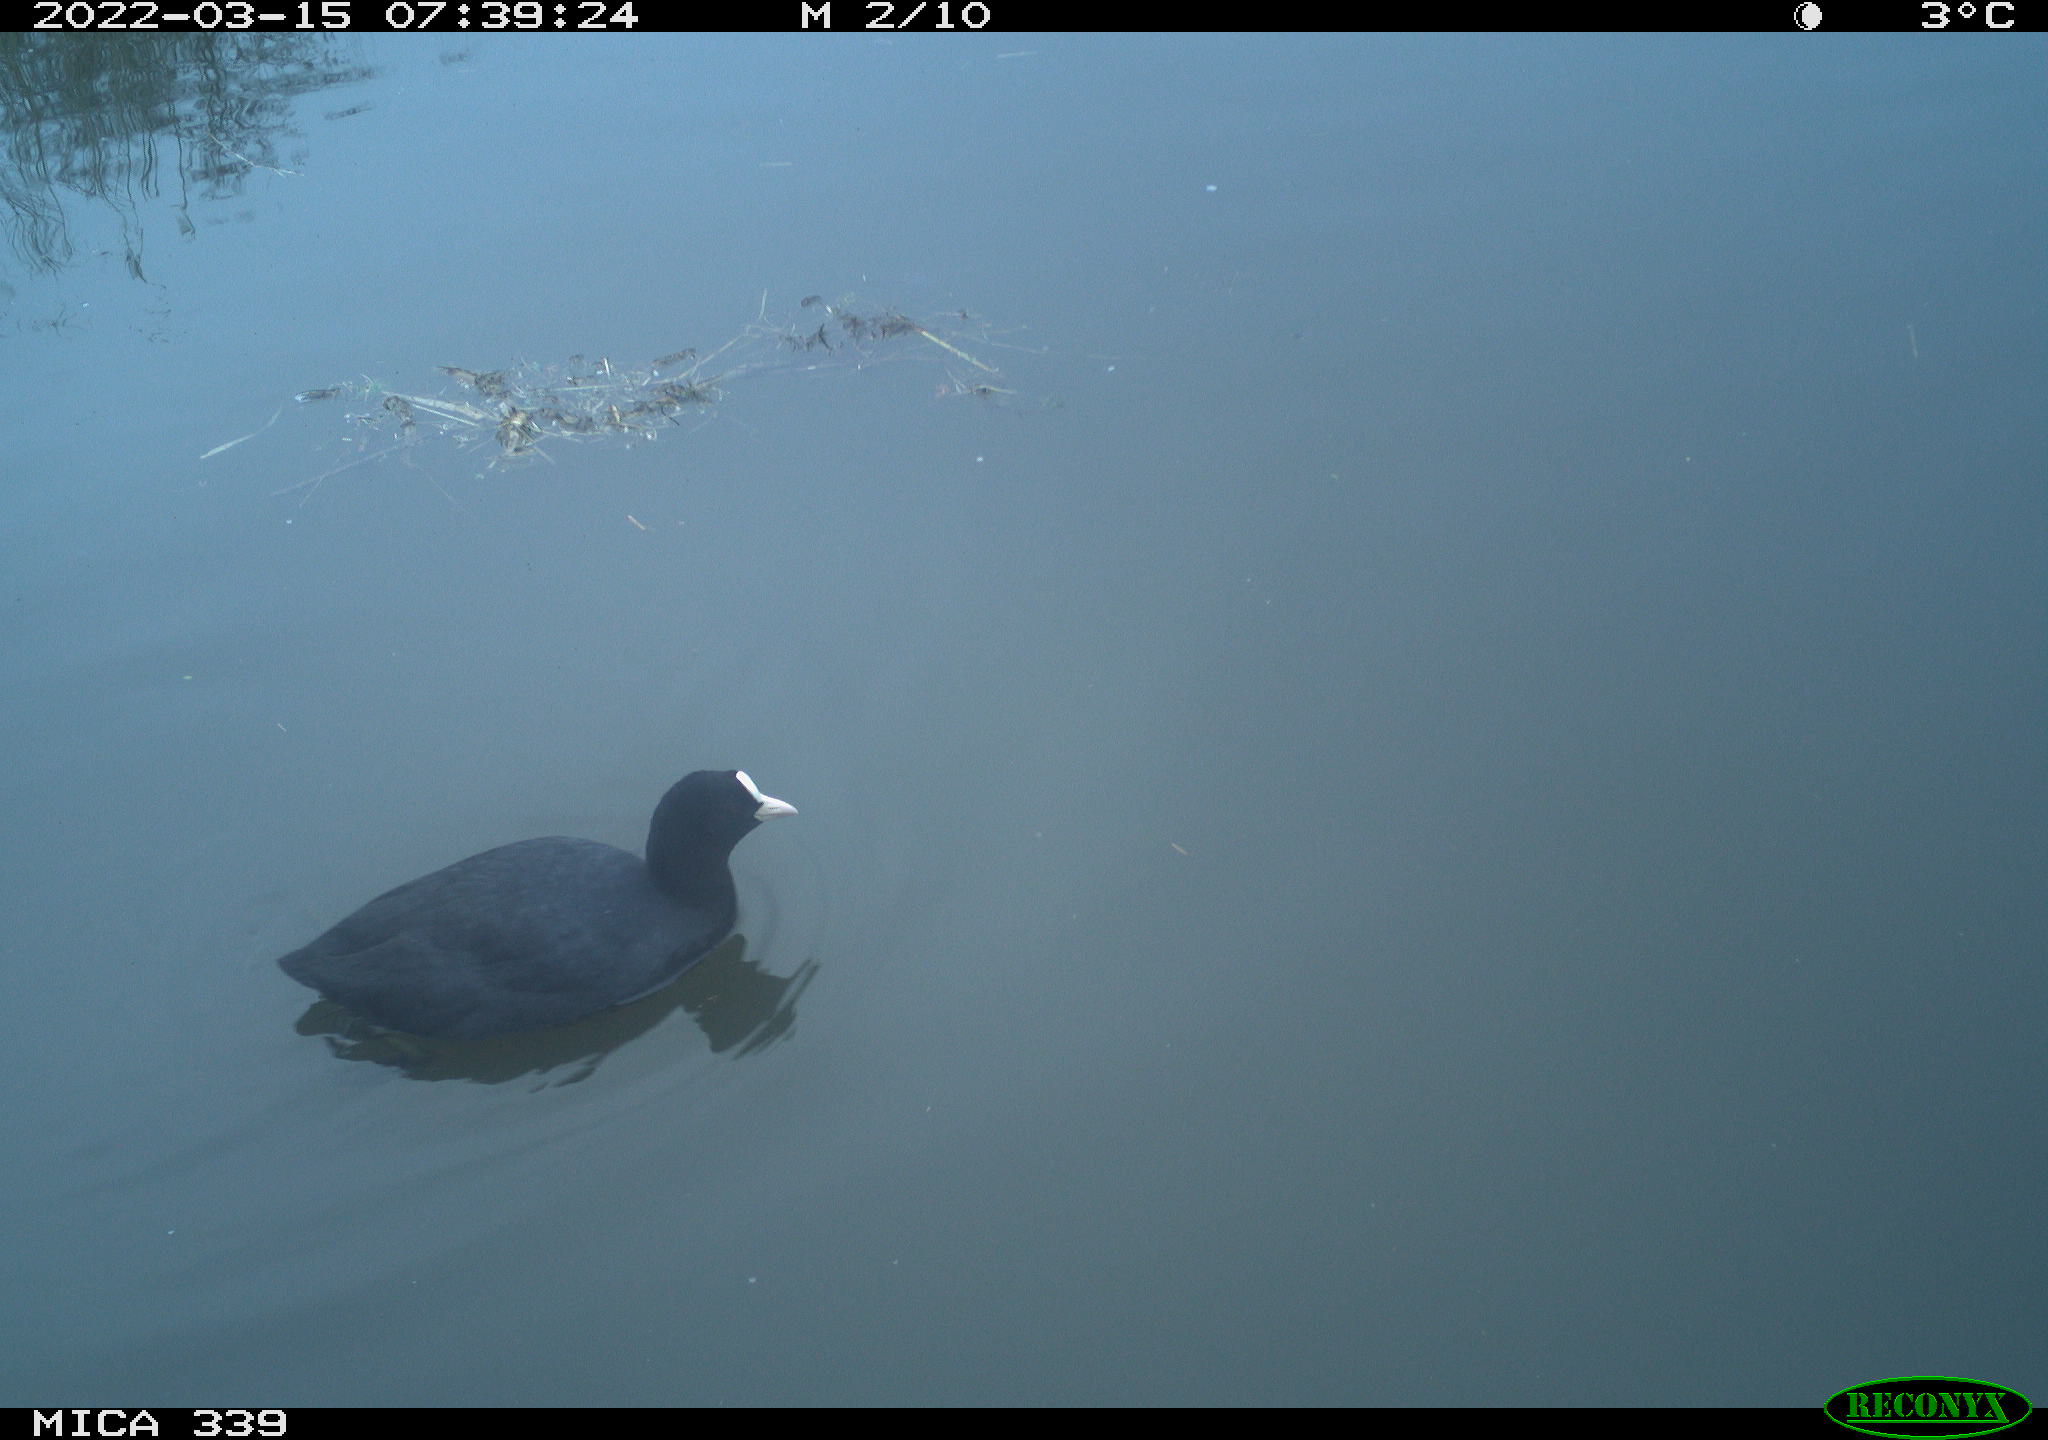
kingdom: Animalia
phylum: Chordata
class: Aves
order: Gruiformes
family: Rallidae
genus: Fulica
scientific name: Fulica atra
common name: Eurasian coot
